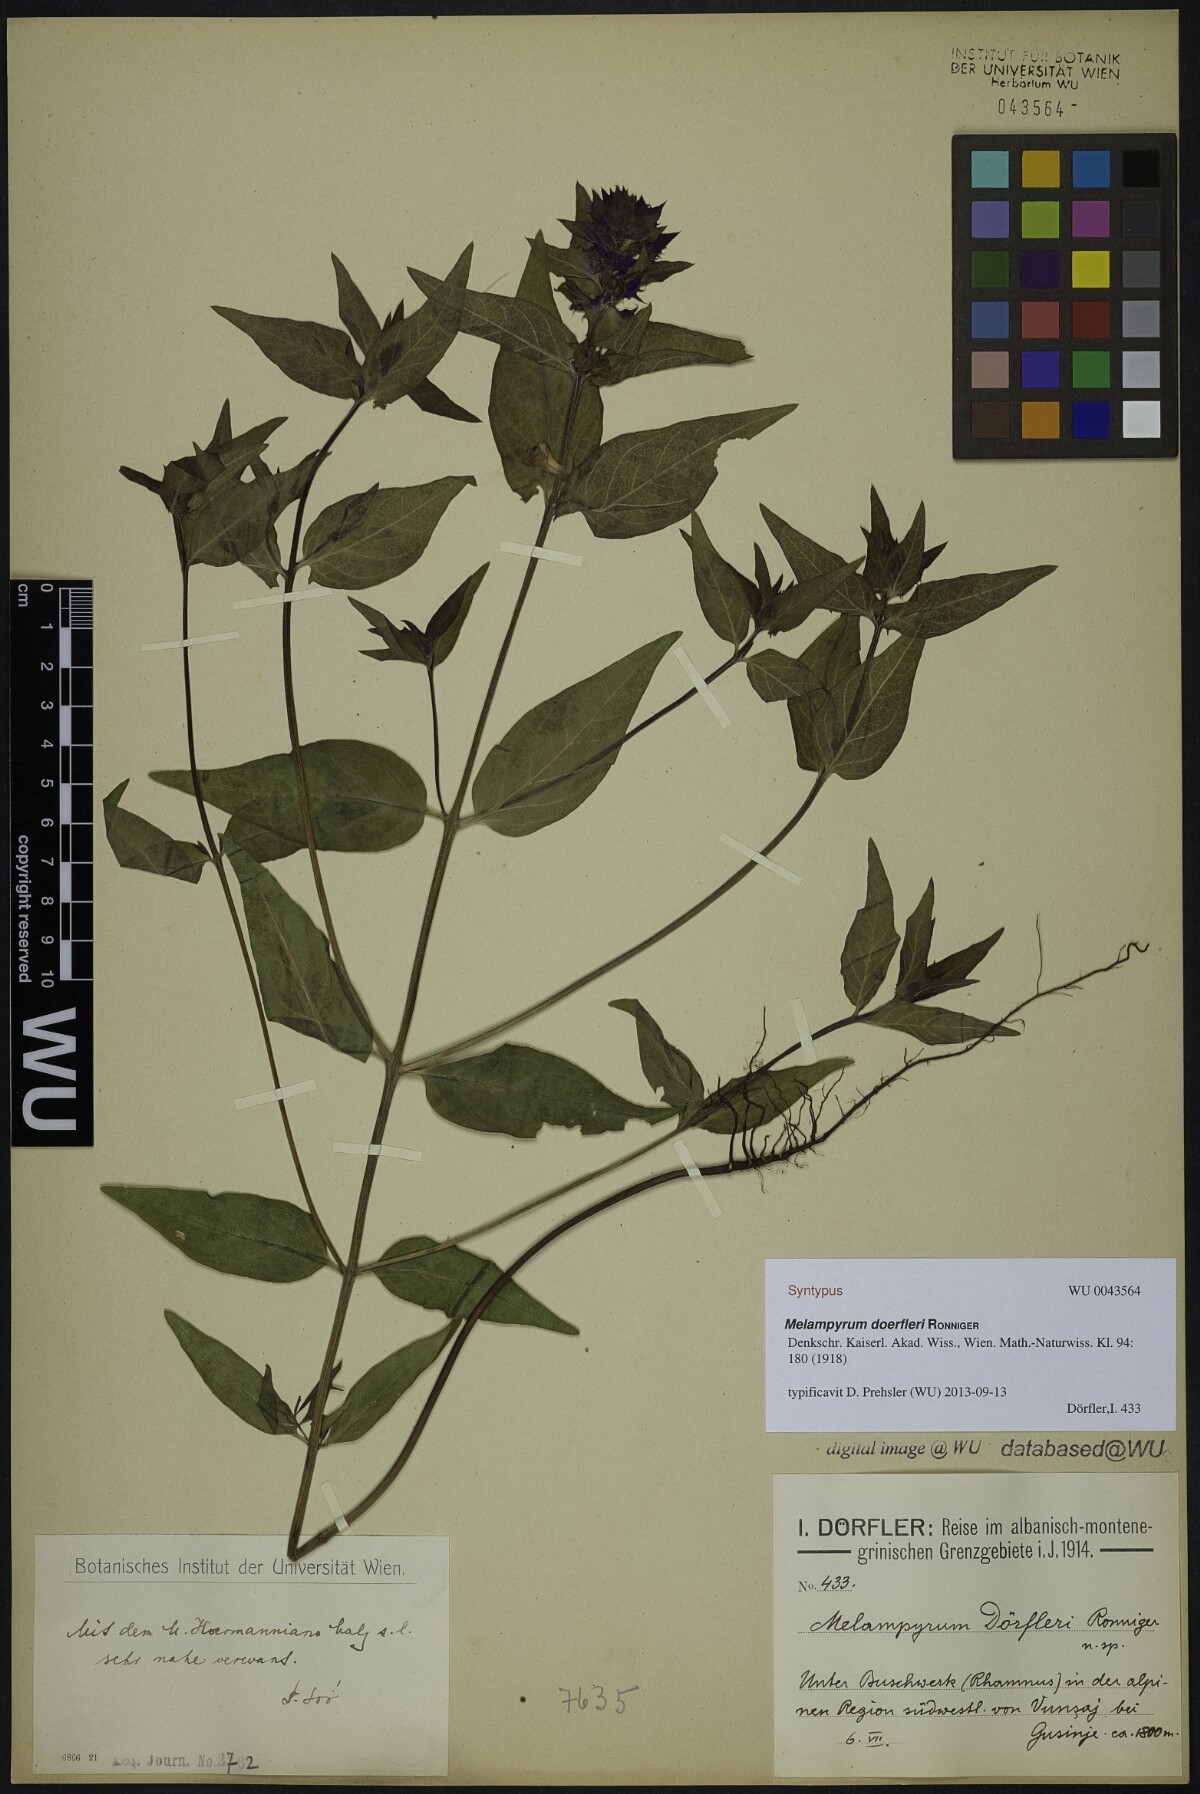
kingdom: Plantae
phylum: Tracheophyta
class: Magnoliopsida
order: Lamiales
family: Orobanchaceae
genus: Melampyrum
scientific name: Melampyrum doerfleri
